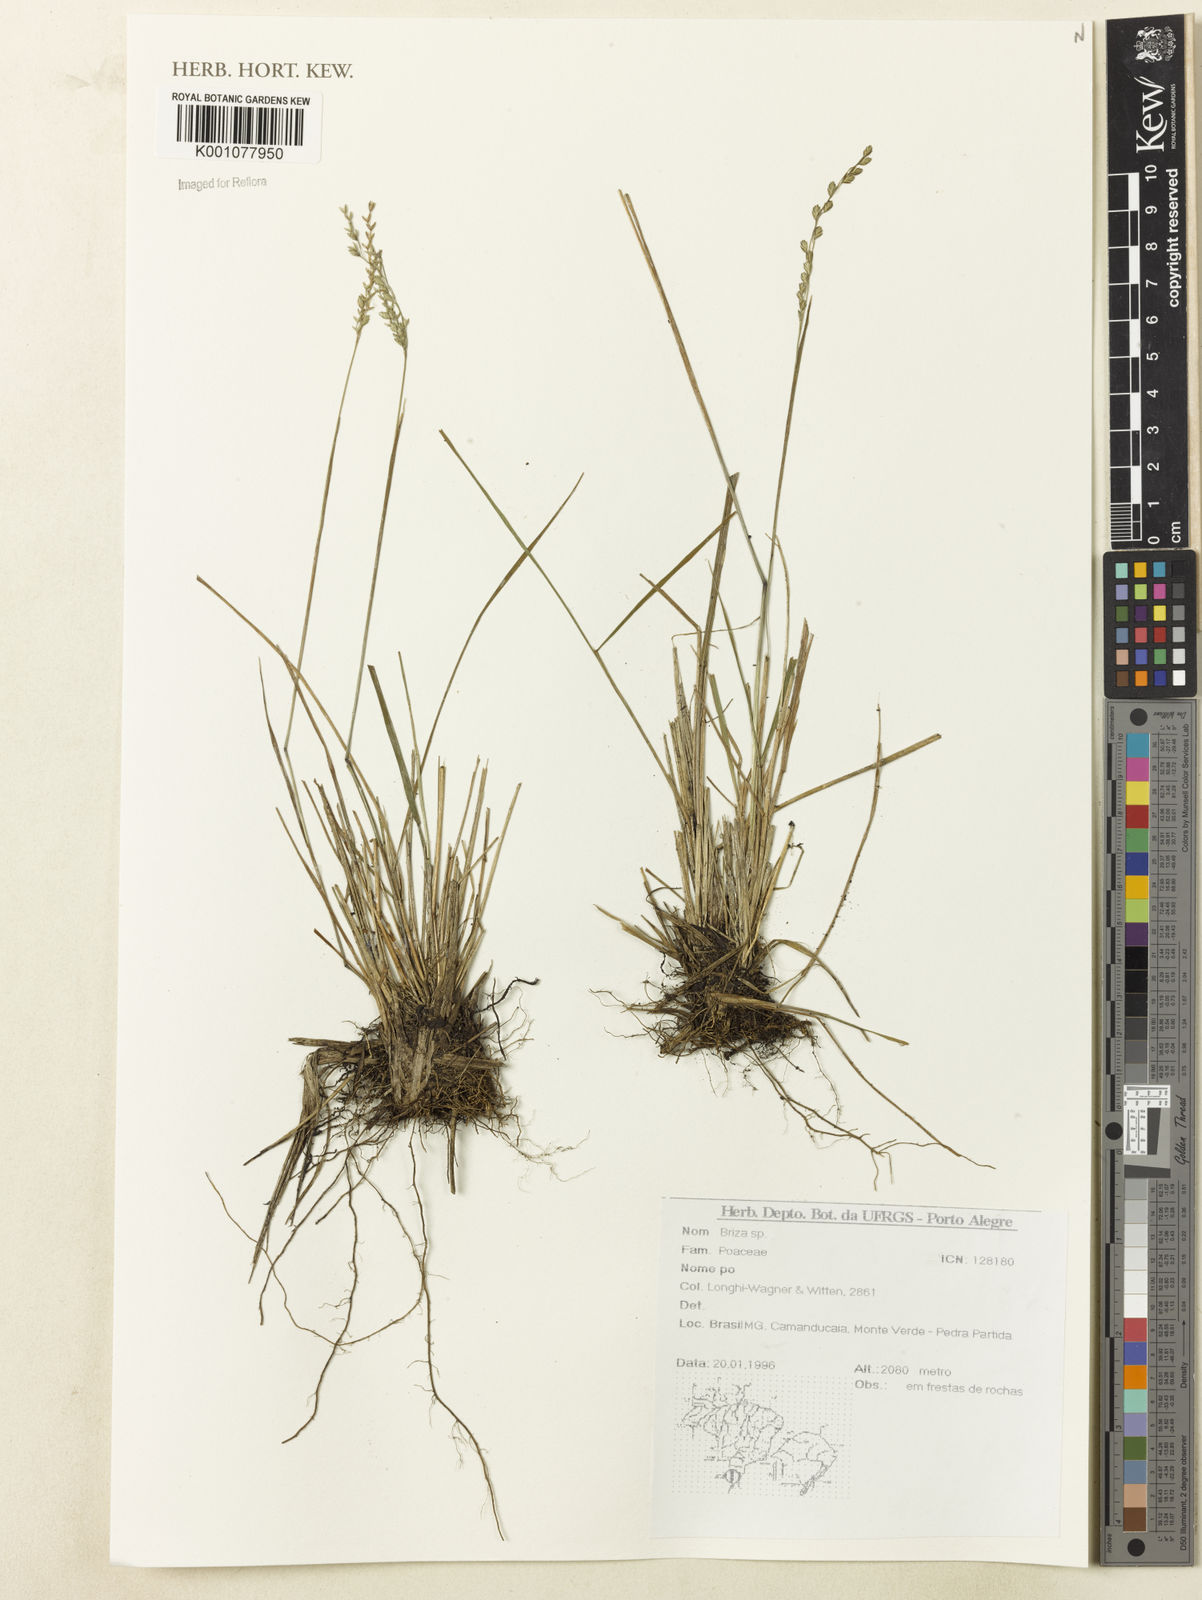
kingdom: Plantae
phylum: Tracheophyta
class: Liliopsida
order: Poales
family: Poaceae
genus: Briza
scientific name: Briza
